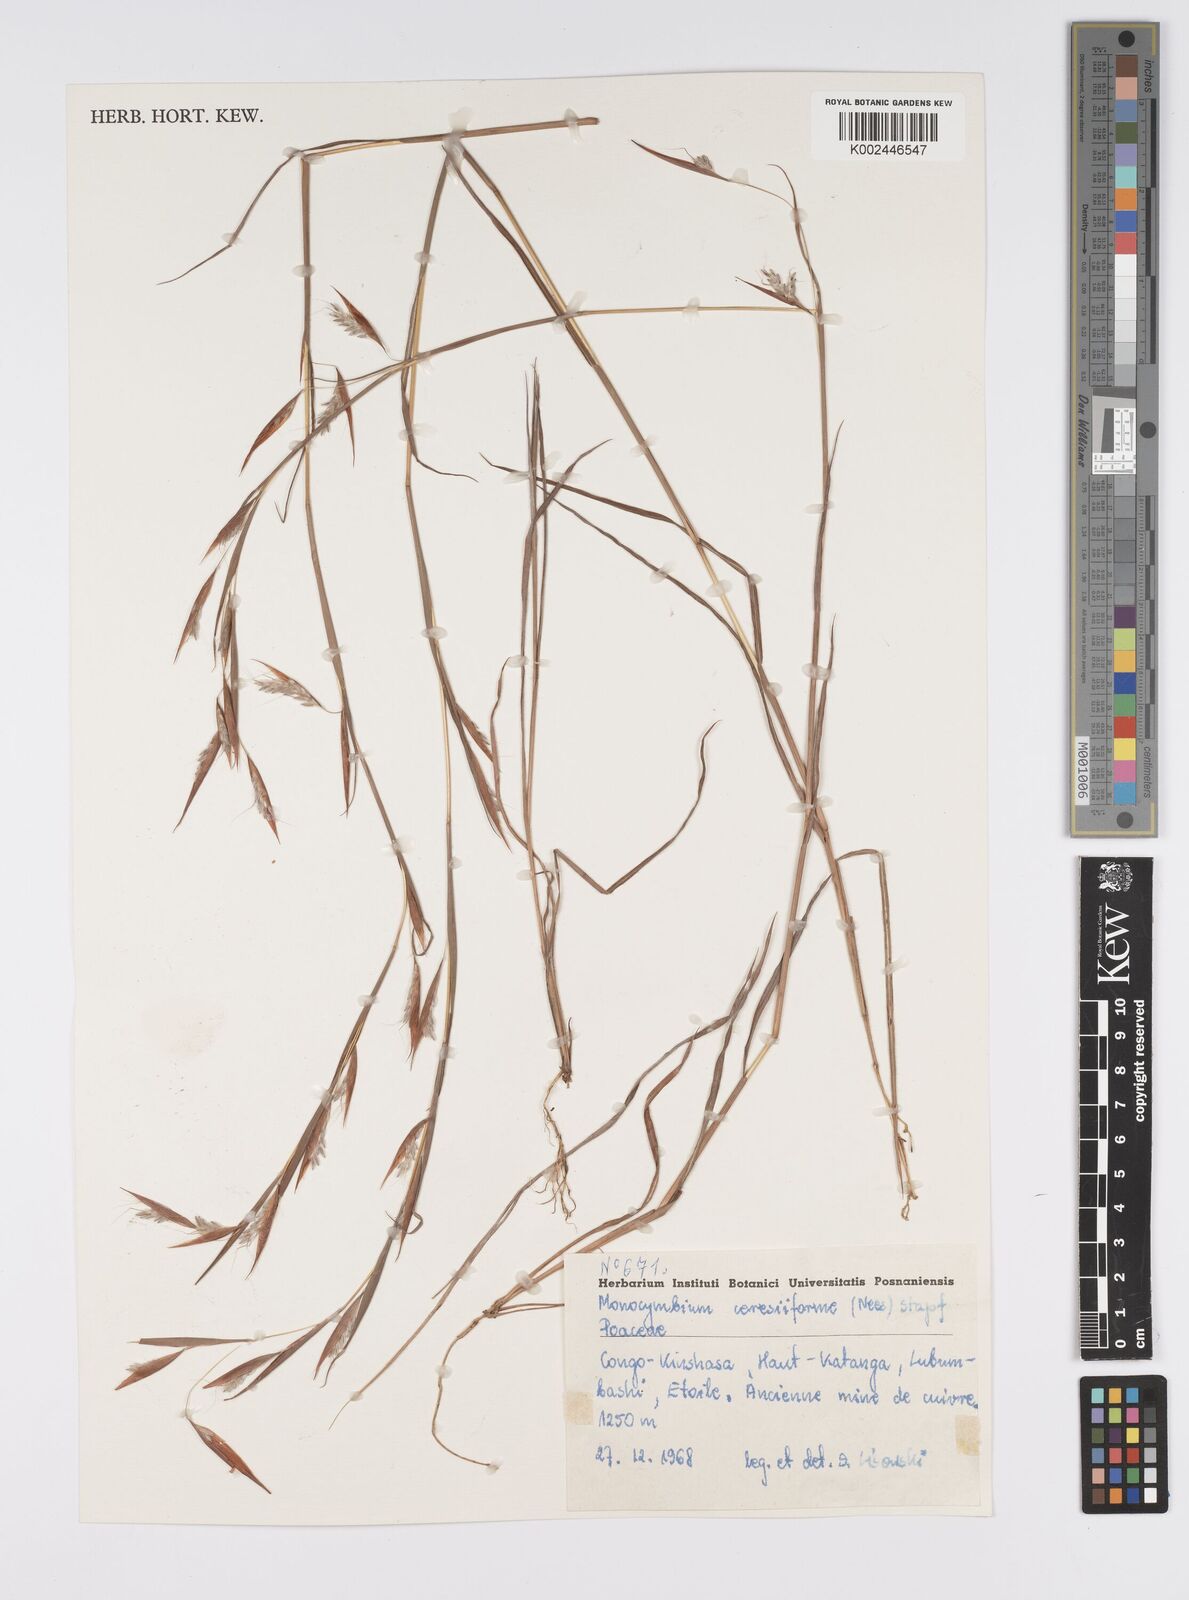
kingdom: Plantae
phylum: Tracheophyta
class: Liliopsida
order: Poales
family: Poaceae
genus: Monocymbium
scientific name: Monocymbium ceresiiforme
